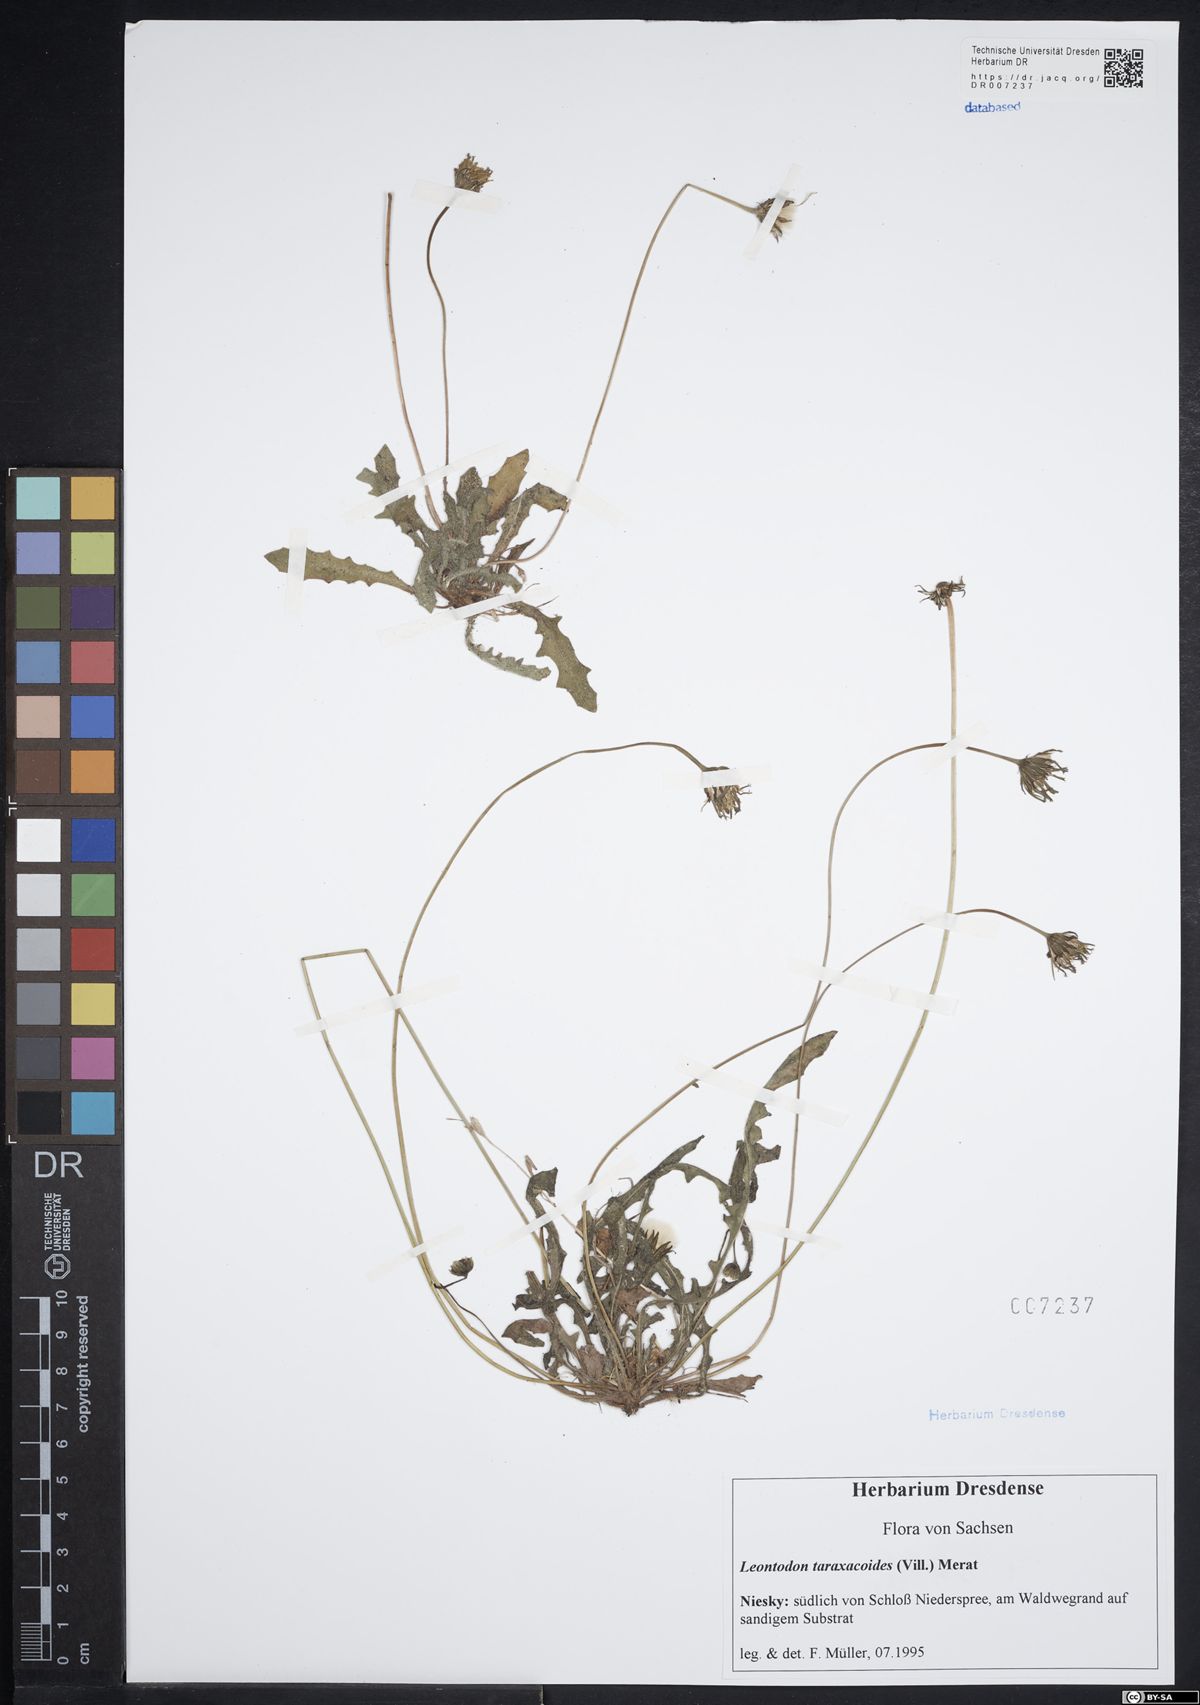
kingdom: Plantae
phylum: Tracheophyta
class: Magnoliopsida
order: Asterales
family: Asteraceae
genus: Thrincia
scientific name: Thrincia saxatilis
